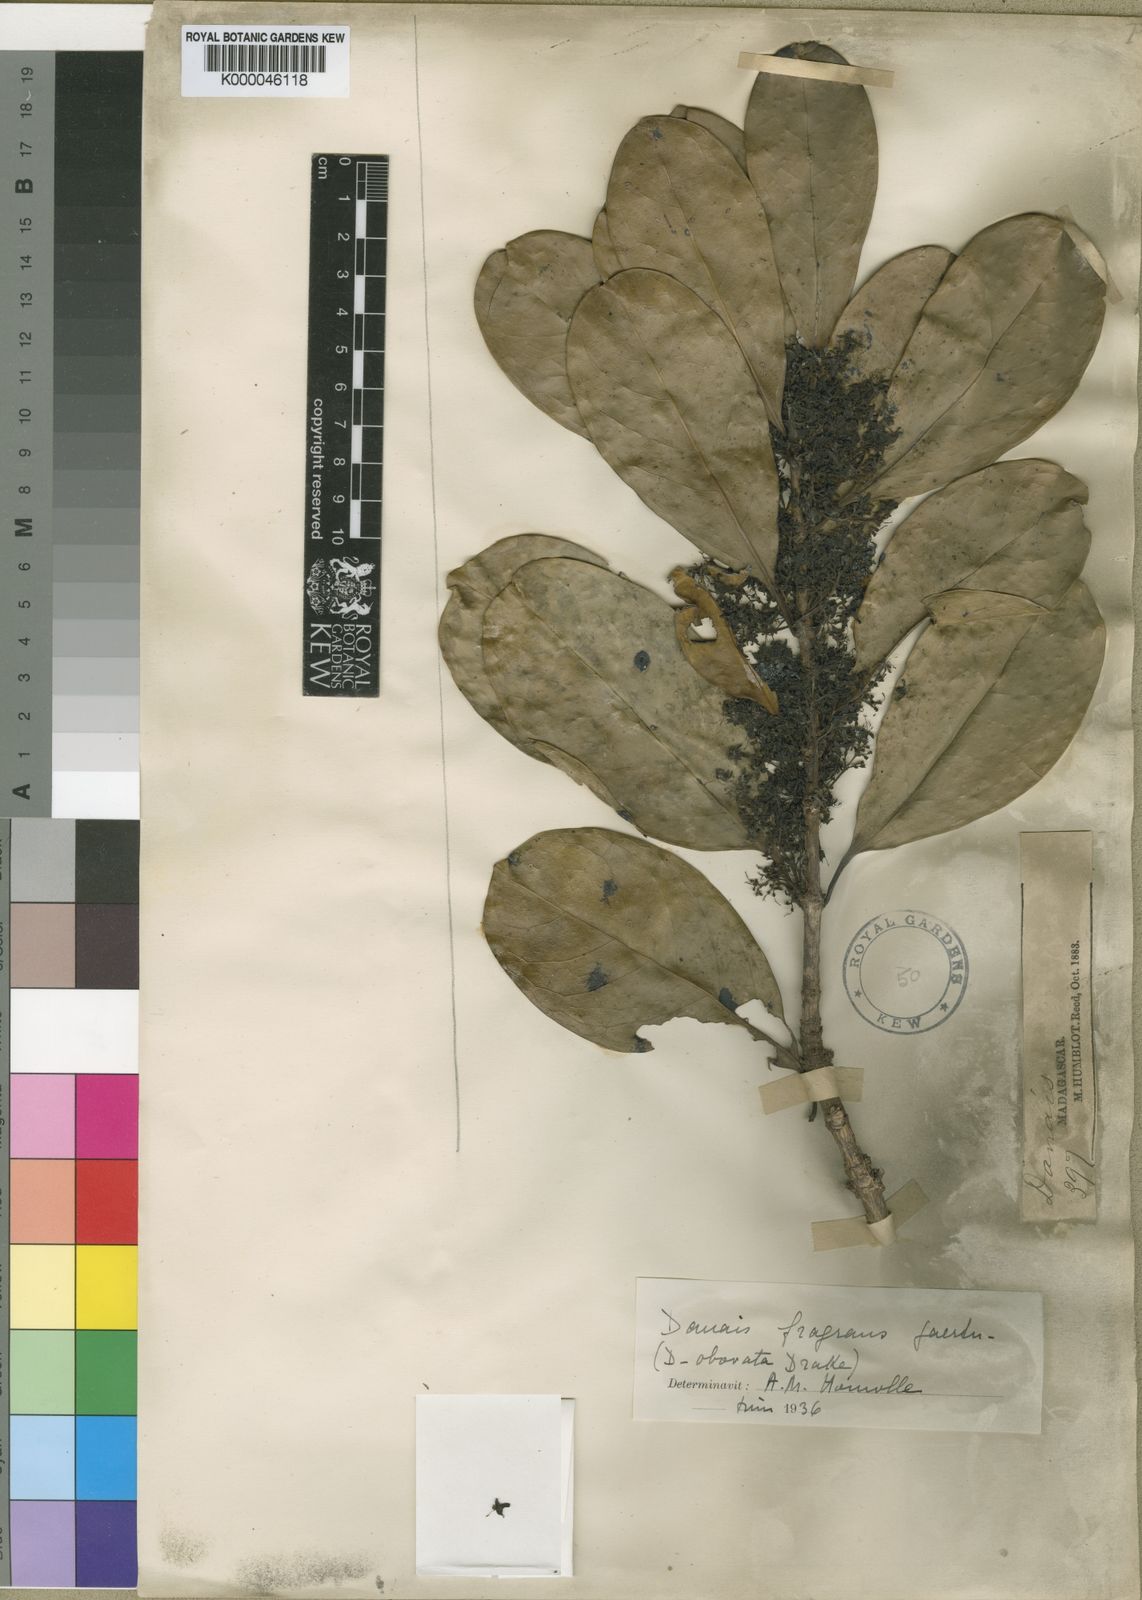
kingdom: Plantae
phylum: Tracheophyta
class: Magnoliopsida
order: Gentianales
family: Rubiaceae
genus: Danais
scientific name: Danais fragrans
